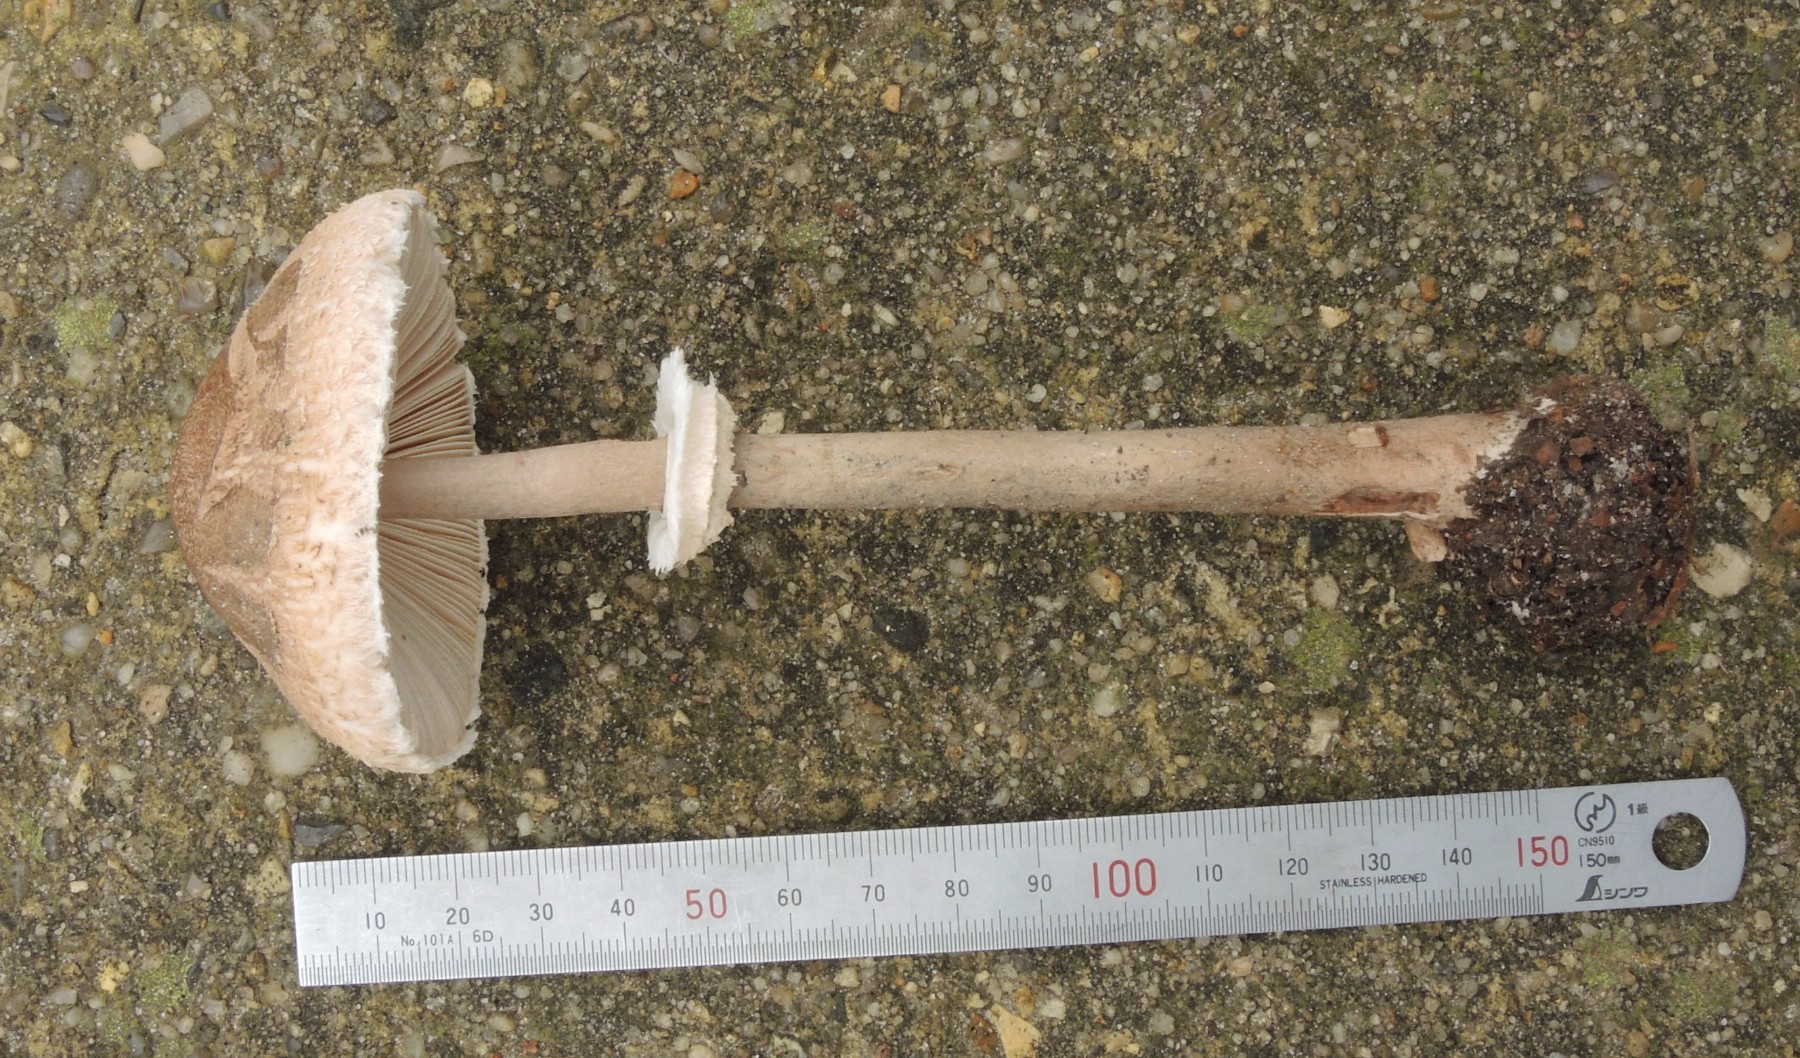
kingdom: Fungi
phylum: Basidiomycota
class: Agaricomycetes
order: Agaricales
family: Agaricaceae
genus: Macrolepiota
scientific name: Macrolepiota mastoidea
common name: puklet kæmpeparasolhat
